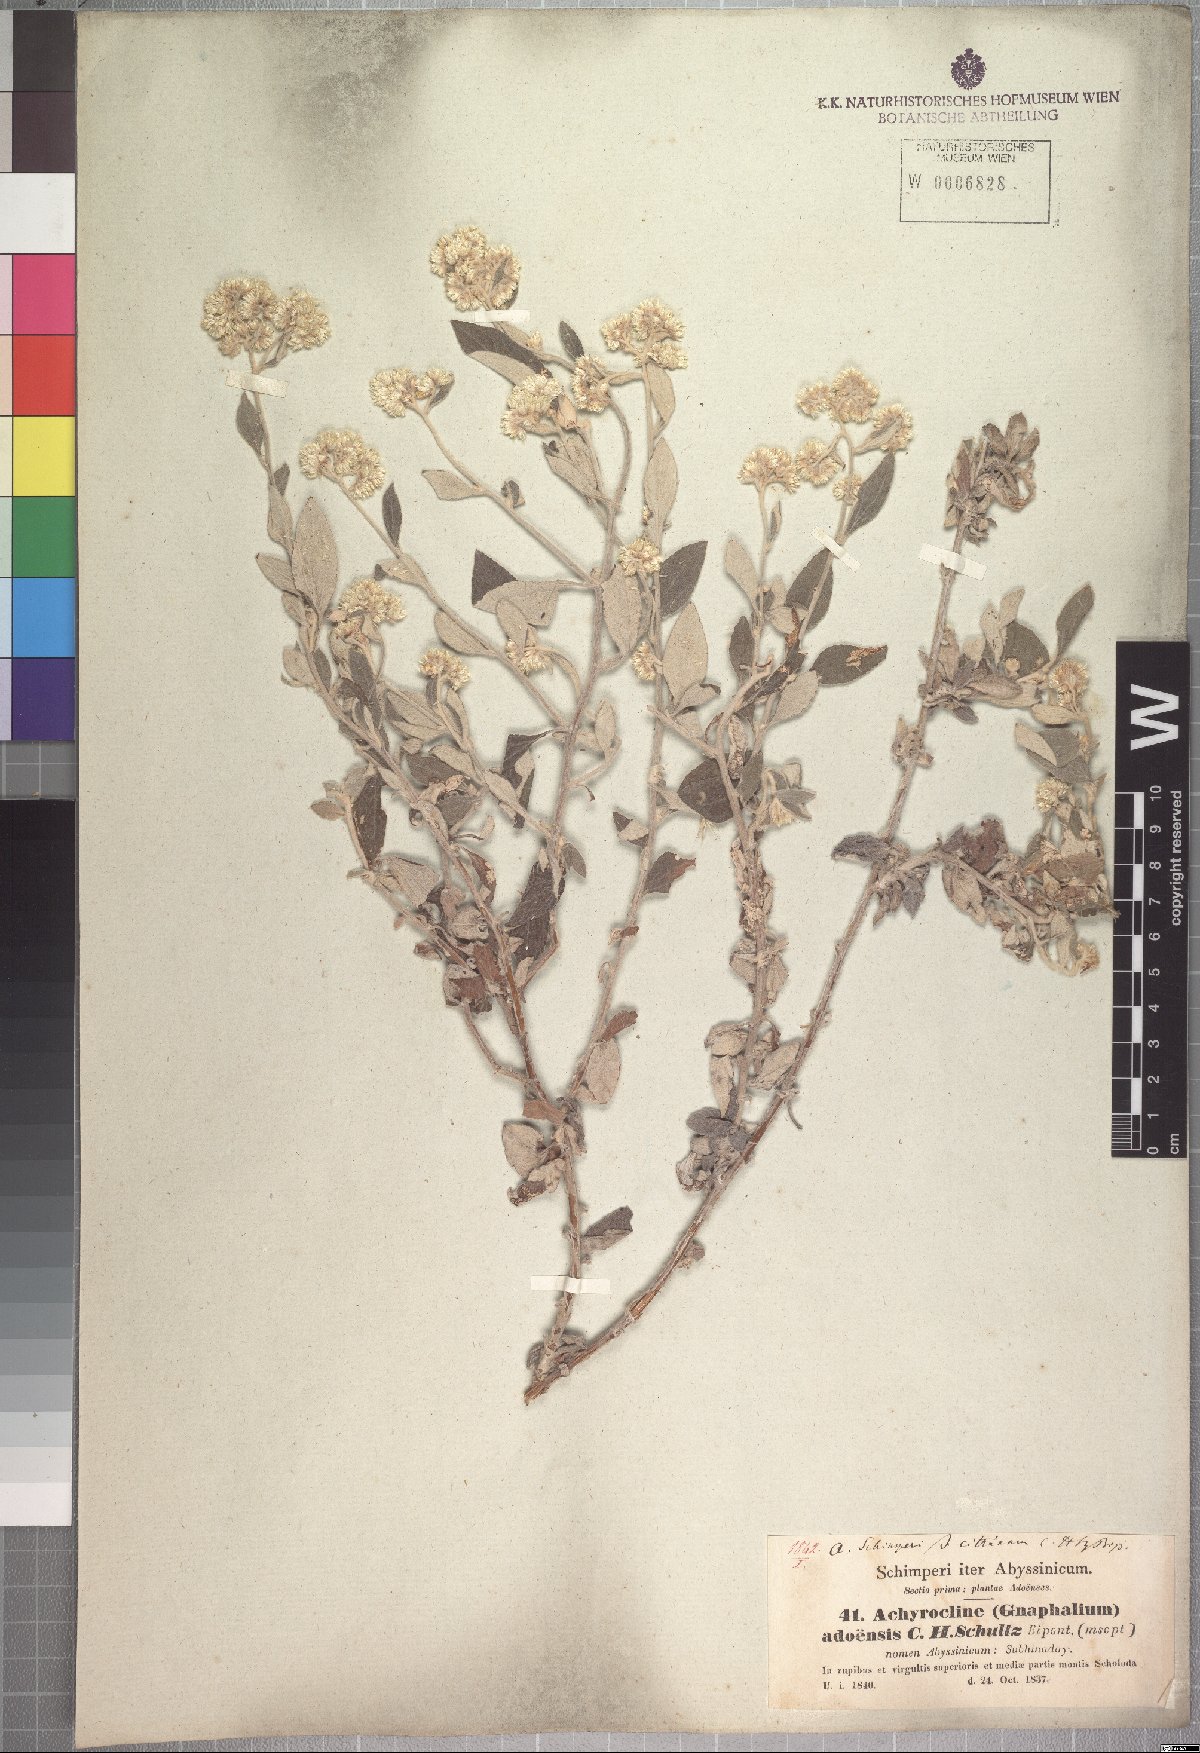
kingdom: Plantae
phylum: Tracheophyta
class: Magnoliopsida
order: Asterales
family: Asteraceae
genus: Helichrysum
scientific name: Helichrysum schimperi
